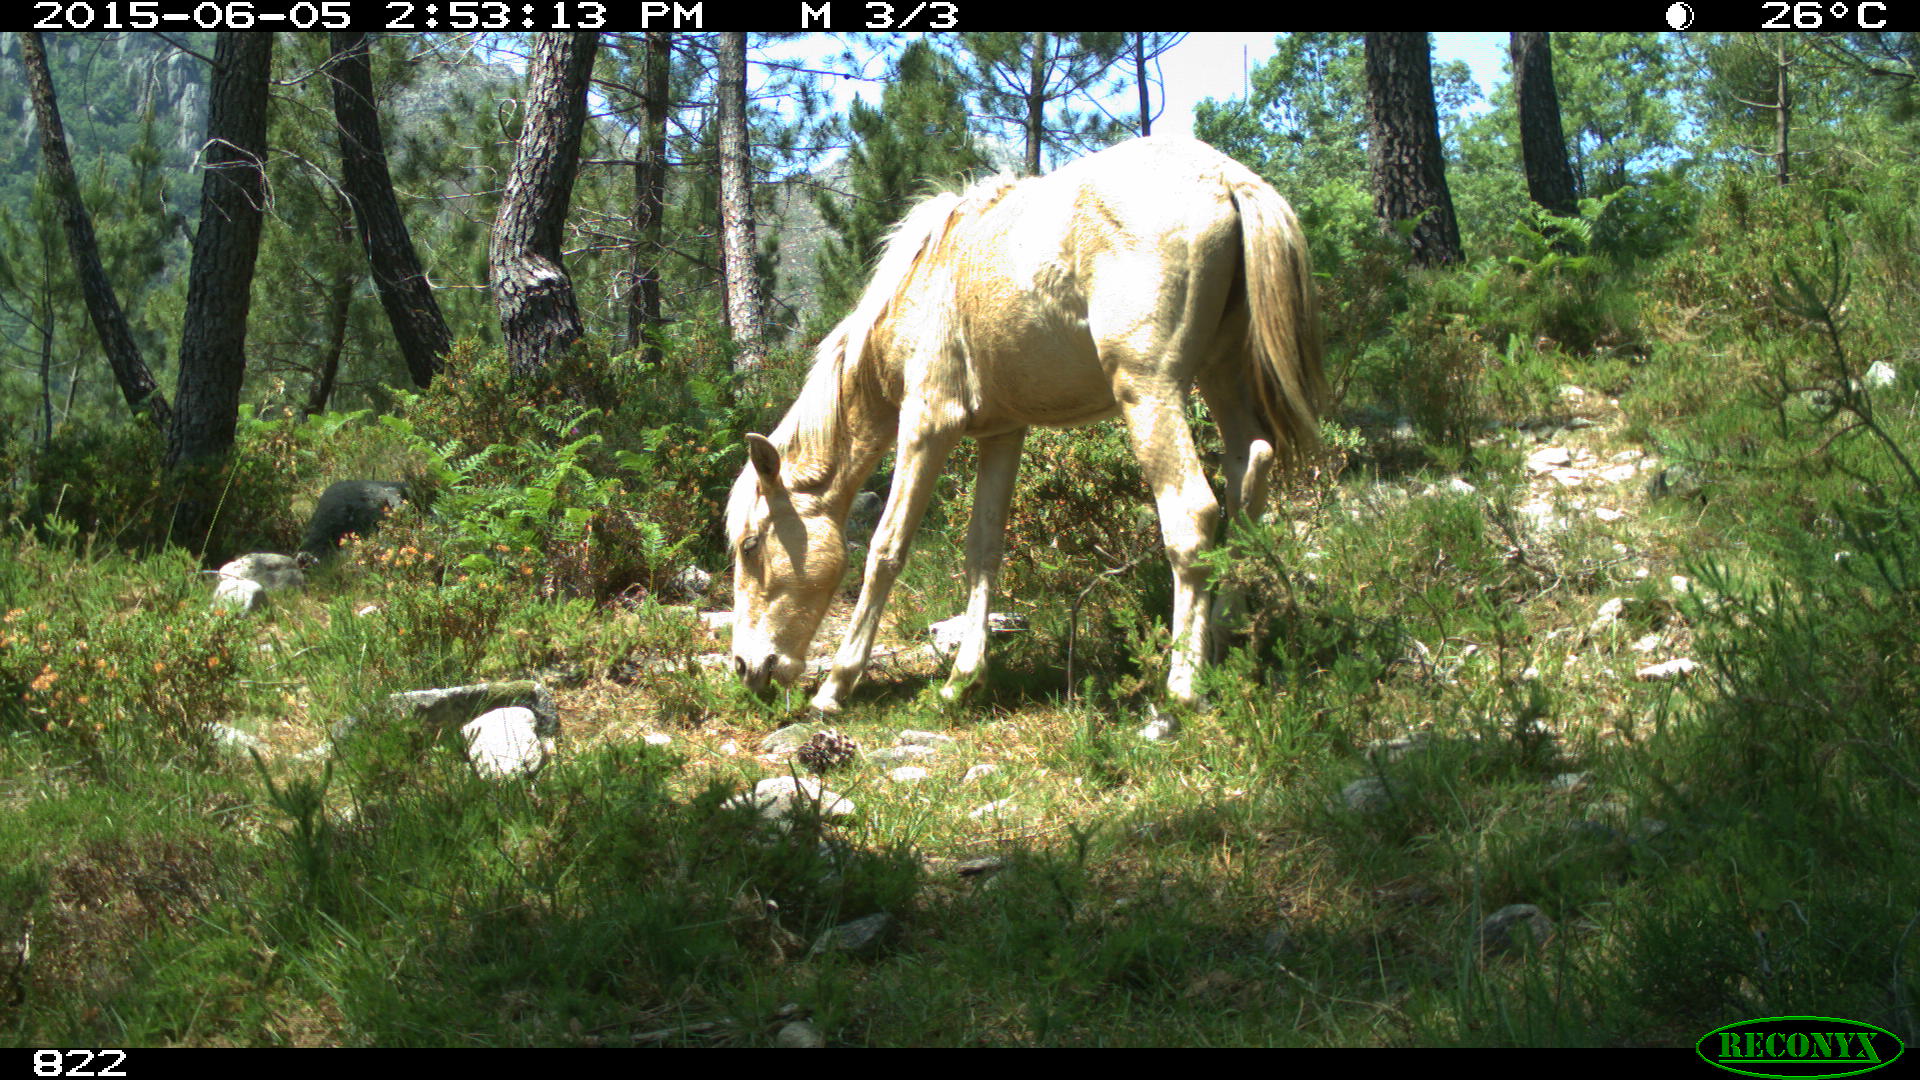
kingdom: Animalia
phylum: Chordata
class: Mammalia
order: Perissodactyla
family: Equidae
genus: Equus
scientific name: Equus caballus
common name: Horse
